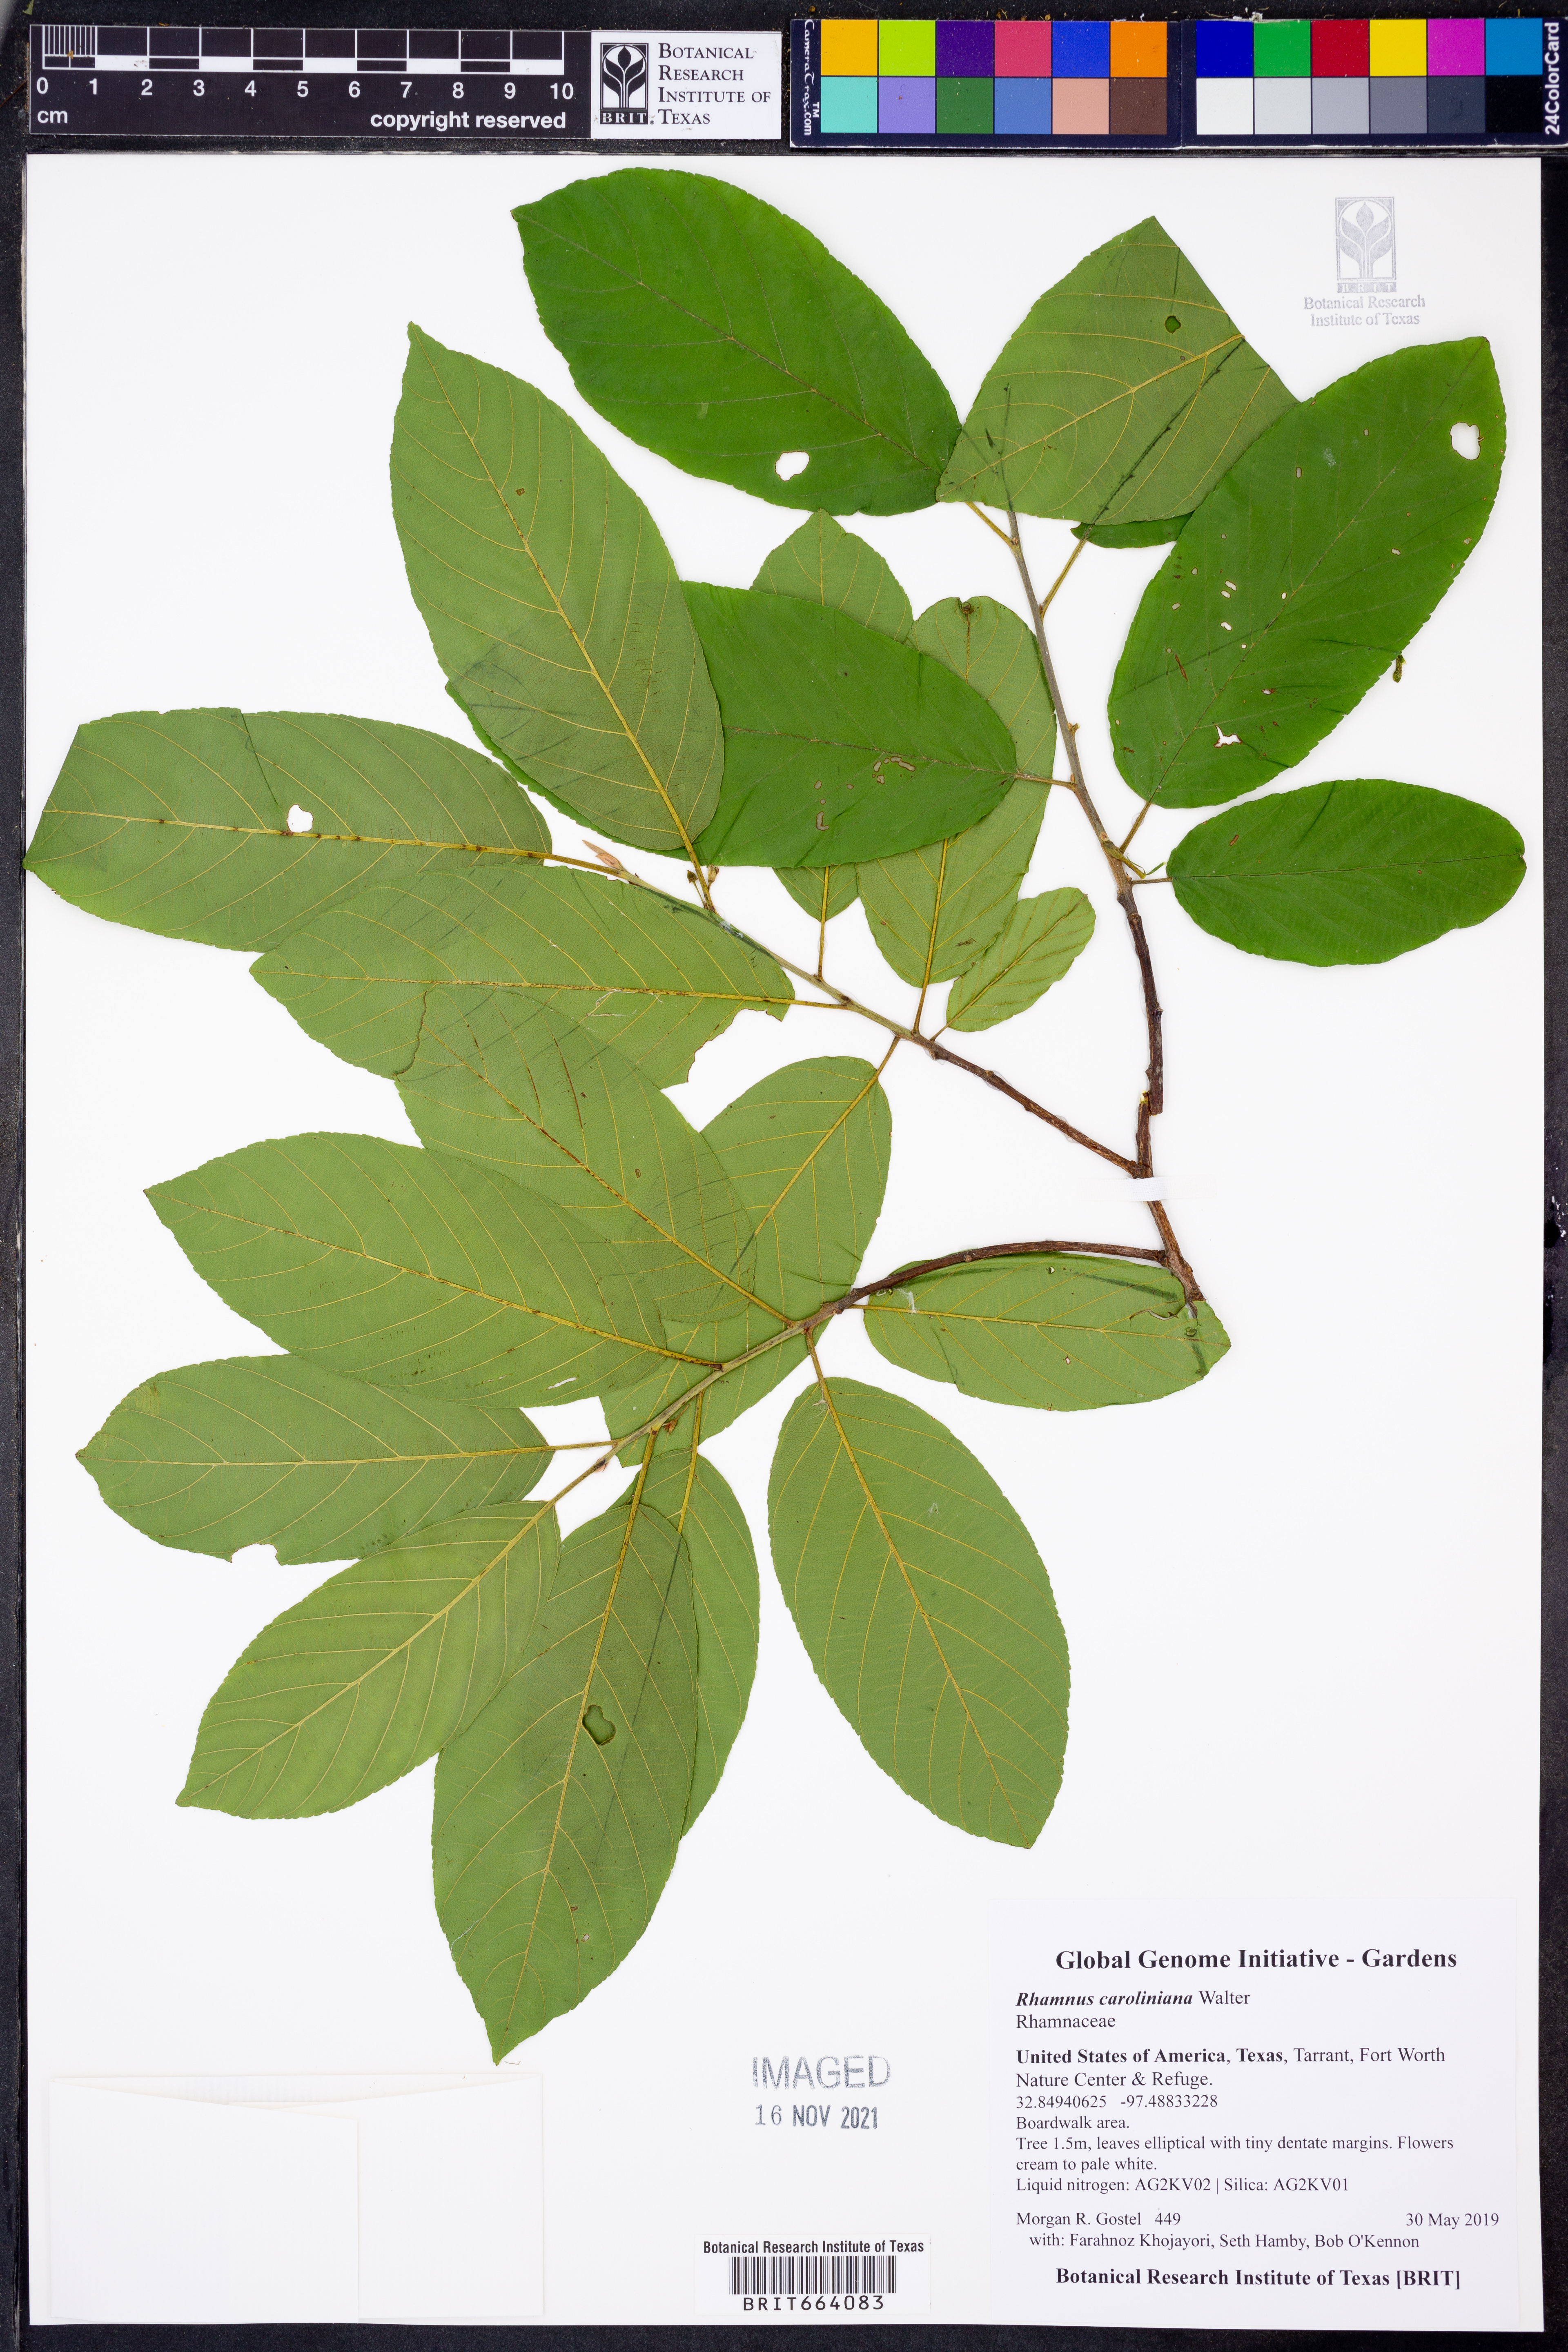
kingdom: Plantae
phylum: Tracheophyta
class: Magnoliopsida
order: Rosales
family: Rhamnaceae
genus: Frangula
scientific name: Frangula caroliniana
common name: Carolina buckthorn
